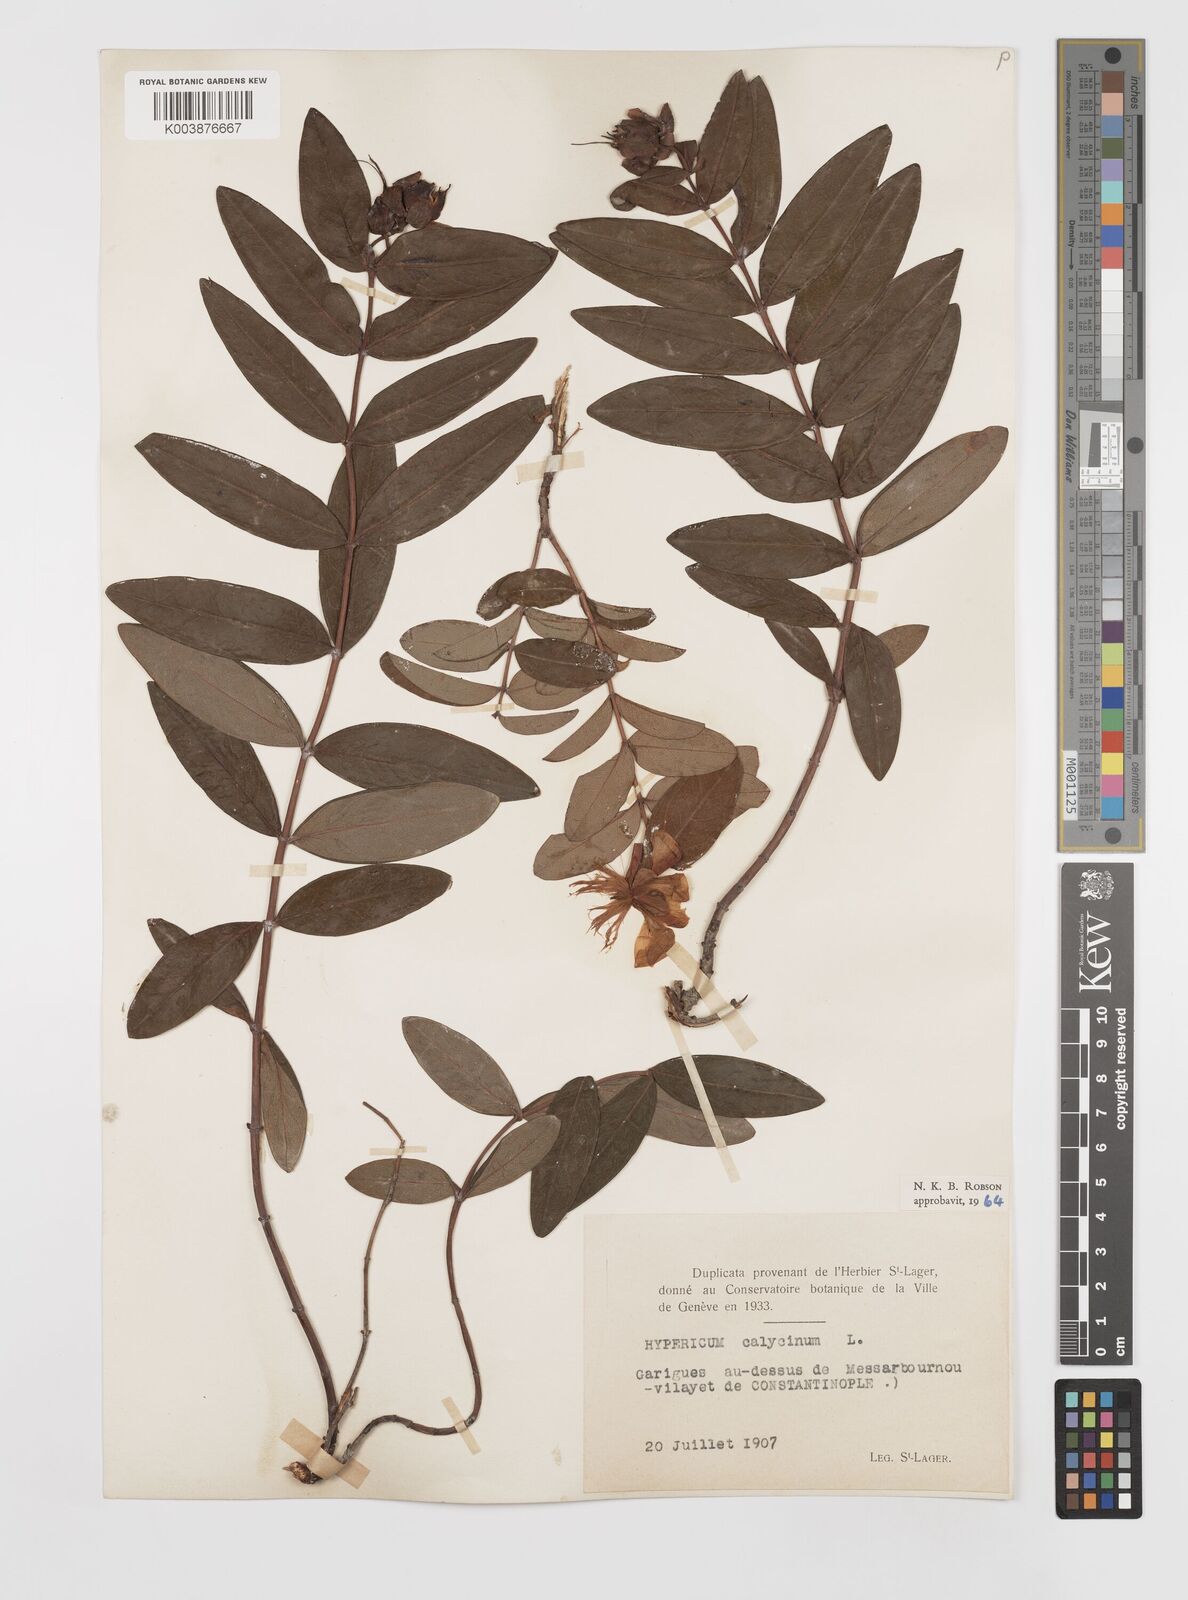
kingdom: Plantae
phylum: Tracheophyta
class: Magnoliopsida
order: Malpighiales
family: Hypericaceae
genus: Hypericum
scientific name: Hypericum calycinum
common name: Rose-of-sharon
